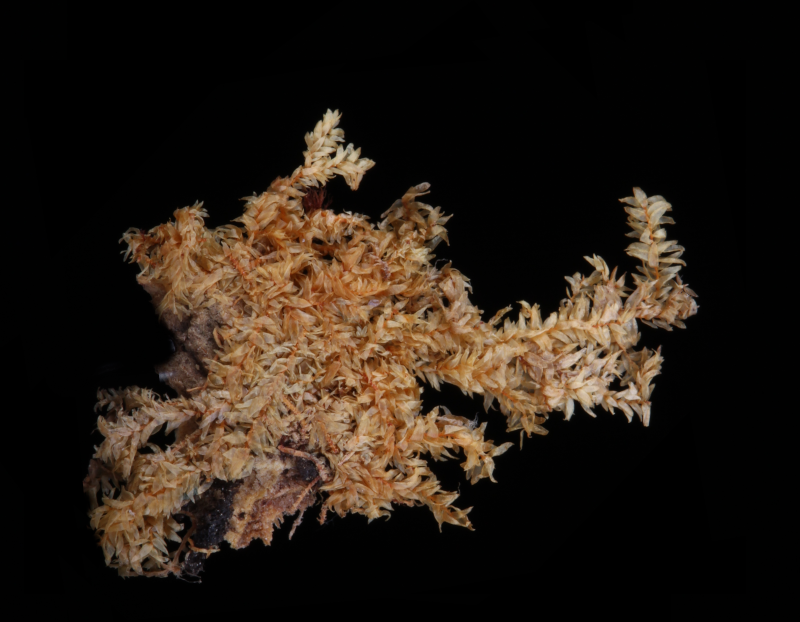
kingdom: Plantae
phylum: Bryophyta
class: Bryopsida
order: Hypnales
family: Symphyodontaceae
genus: Phyllodon
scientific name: Phyllodon similans
